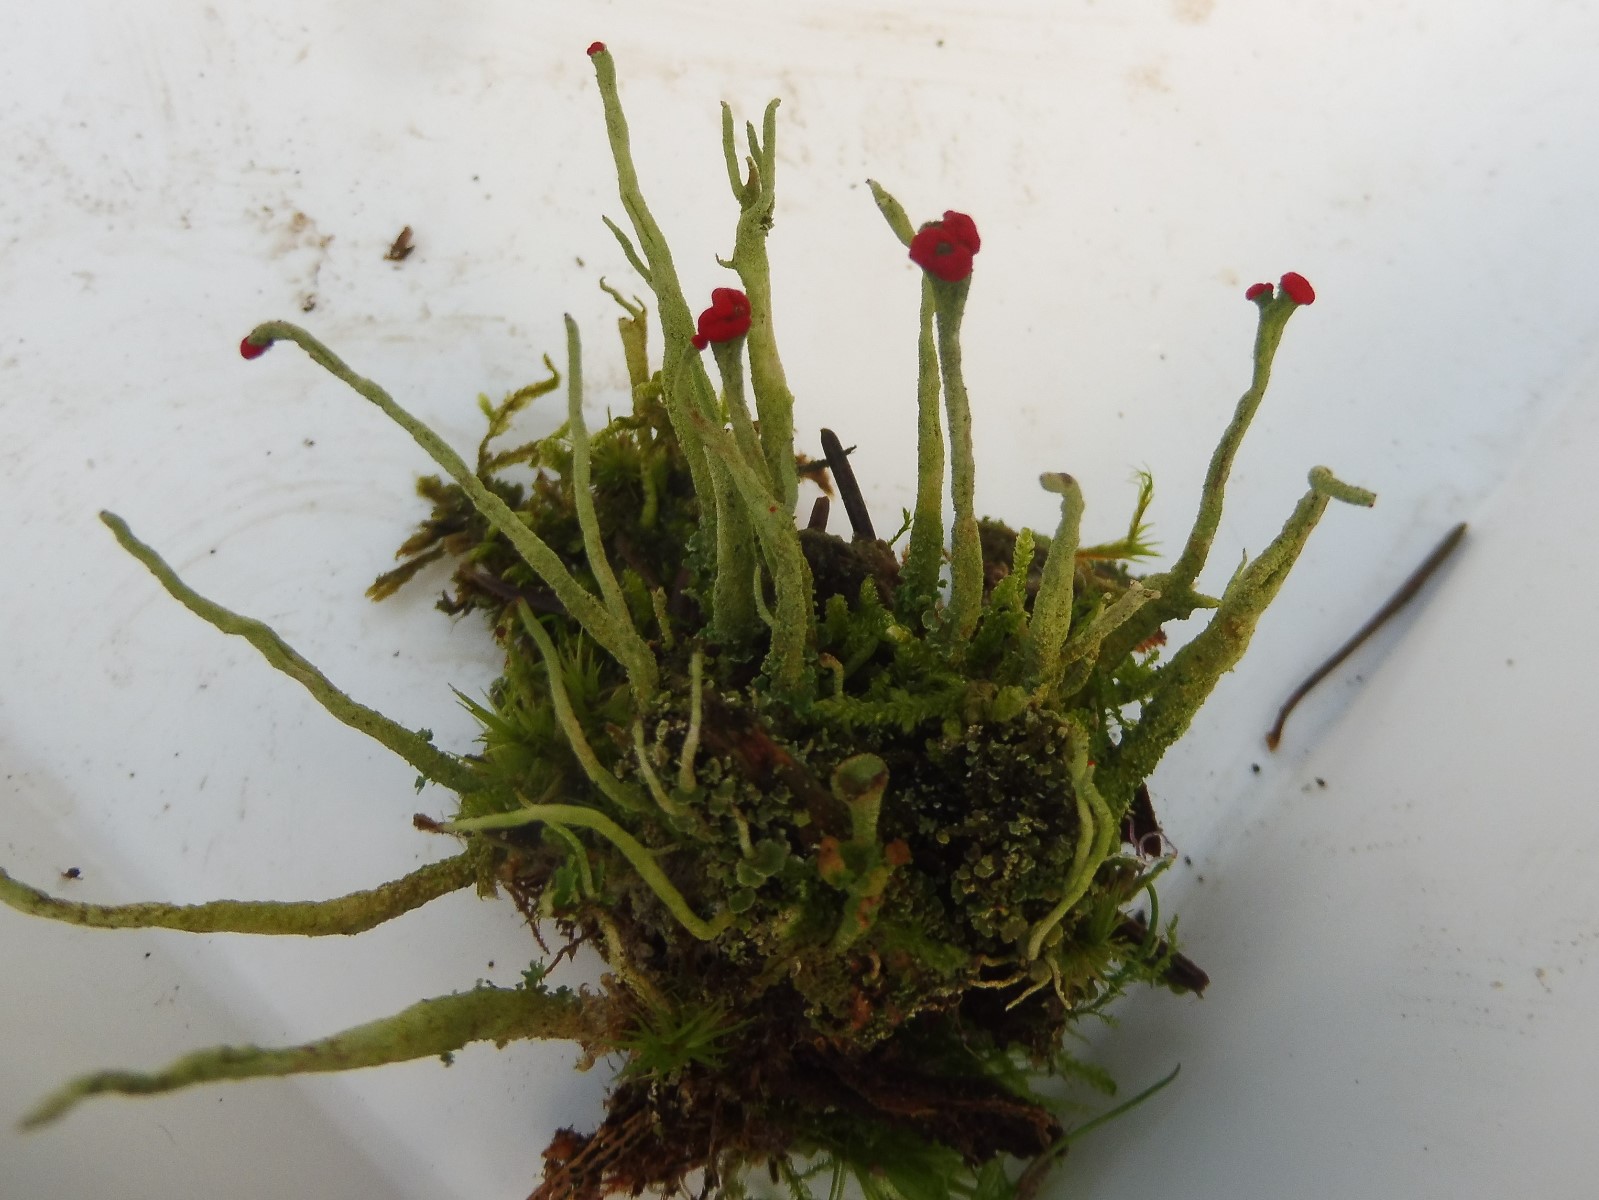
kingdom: Fungi
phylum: Ascomycota
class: Lecanoromycetes
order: Lecanorales
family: Cladoniaceae
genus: Cladonia
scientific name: Cladonia macilenta
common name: indsvunden bægerlav
